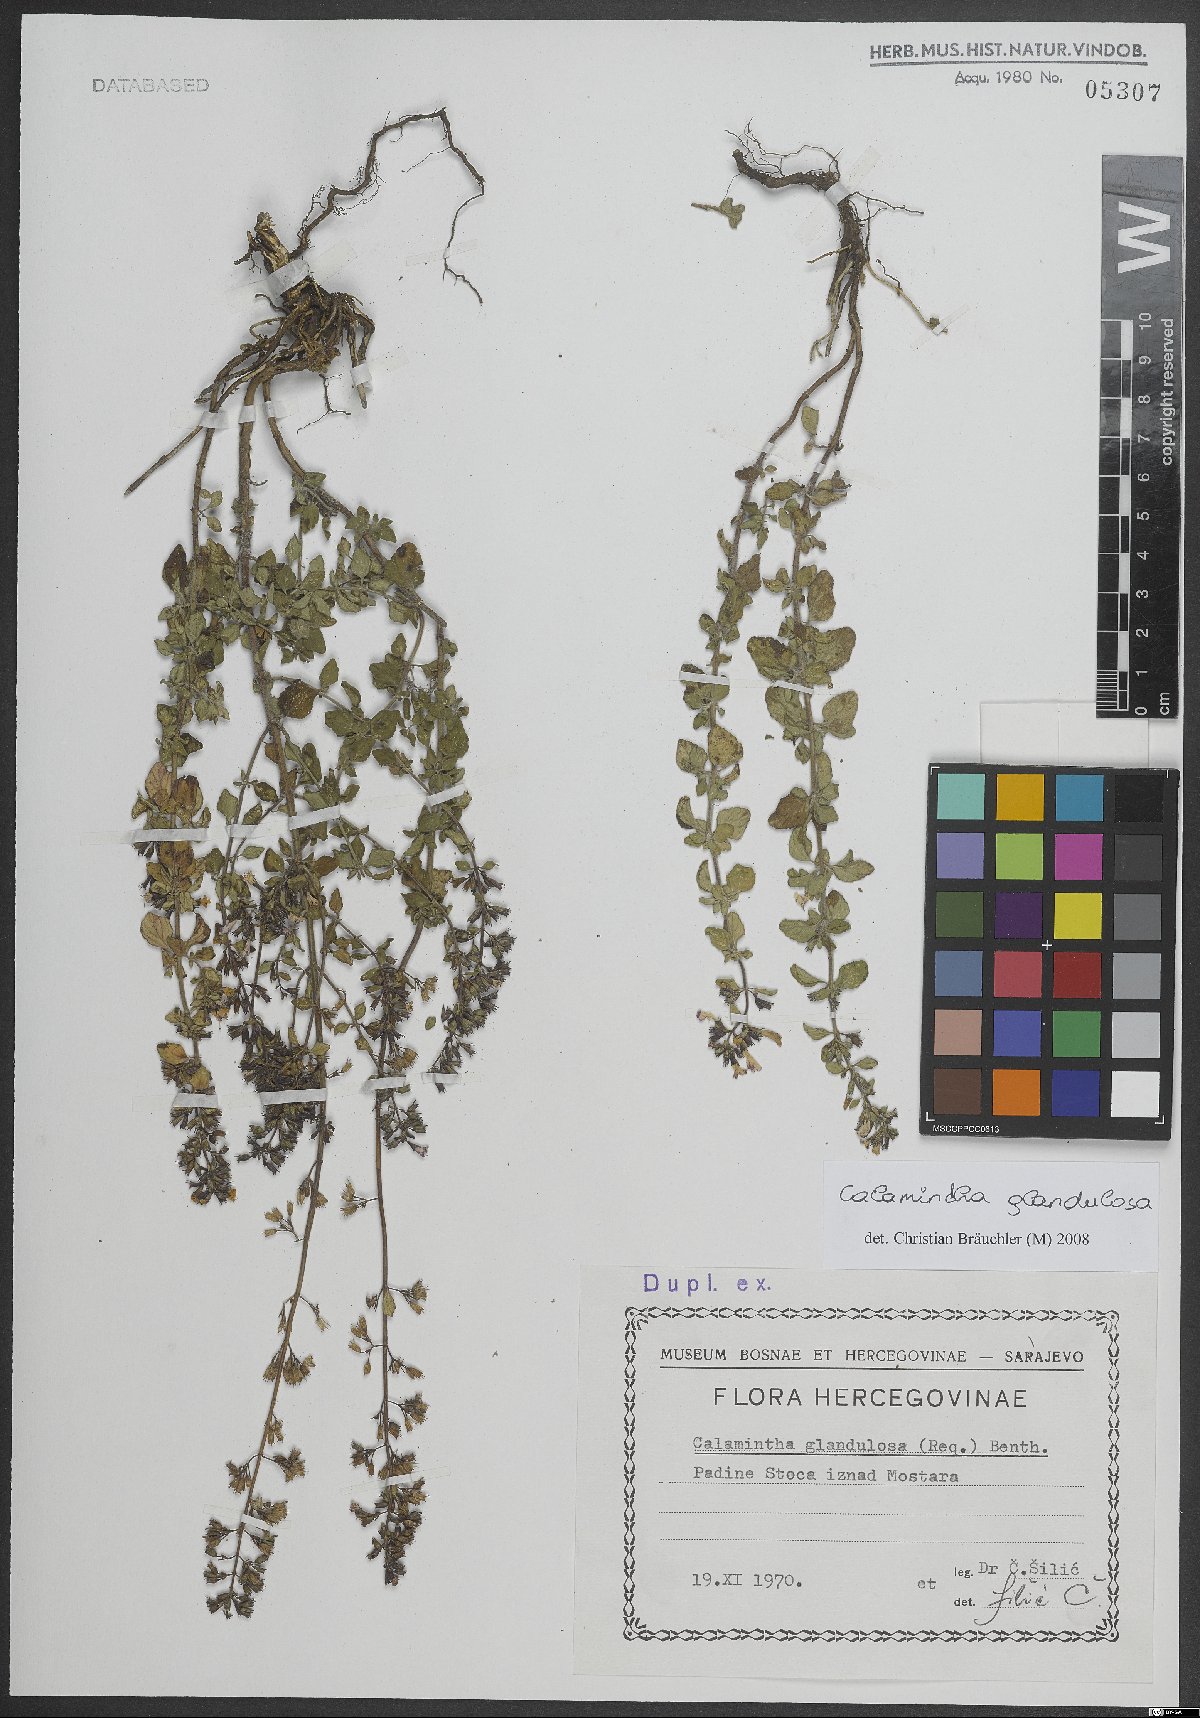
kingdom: Plantae
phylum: Tracheophyta
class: Magnoliopsida
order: Lamiales
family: Lamiaceae
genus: Clinopodium
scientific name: Clinopodium nepeta
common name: Lesser calamint
